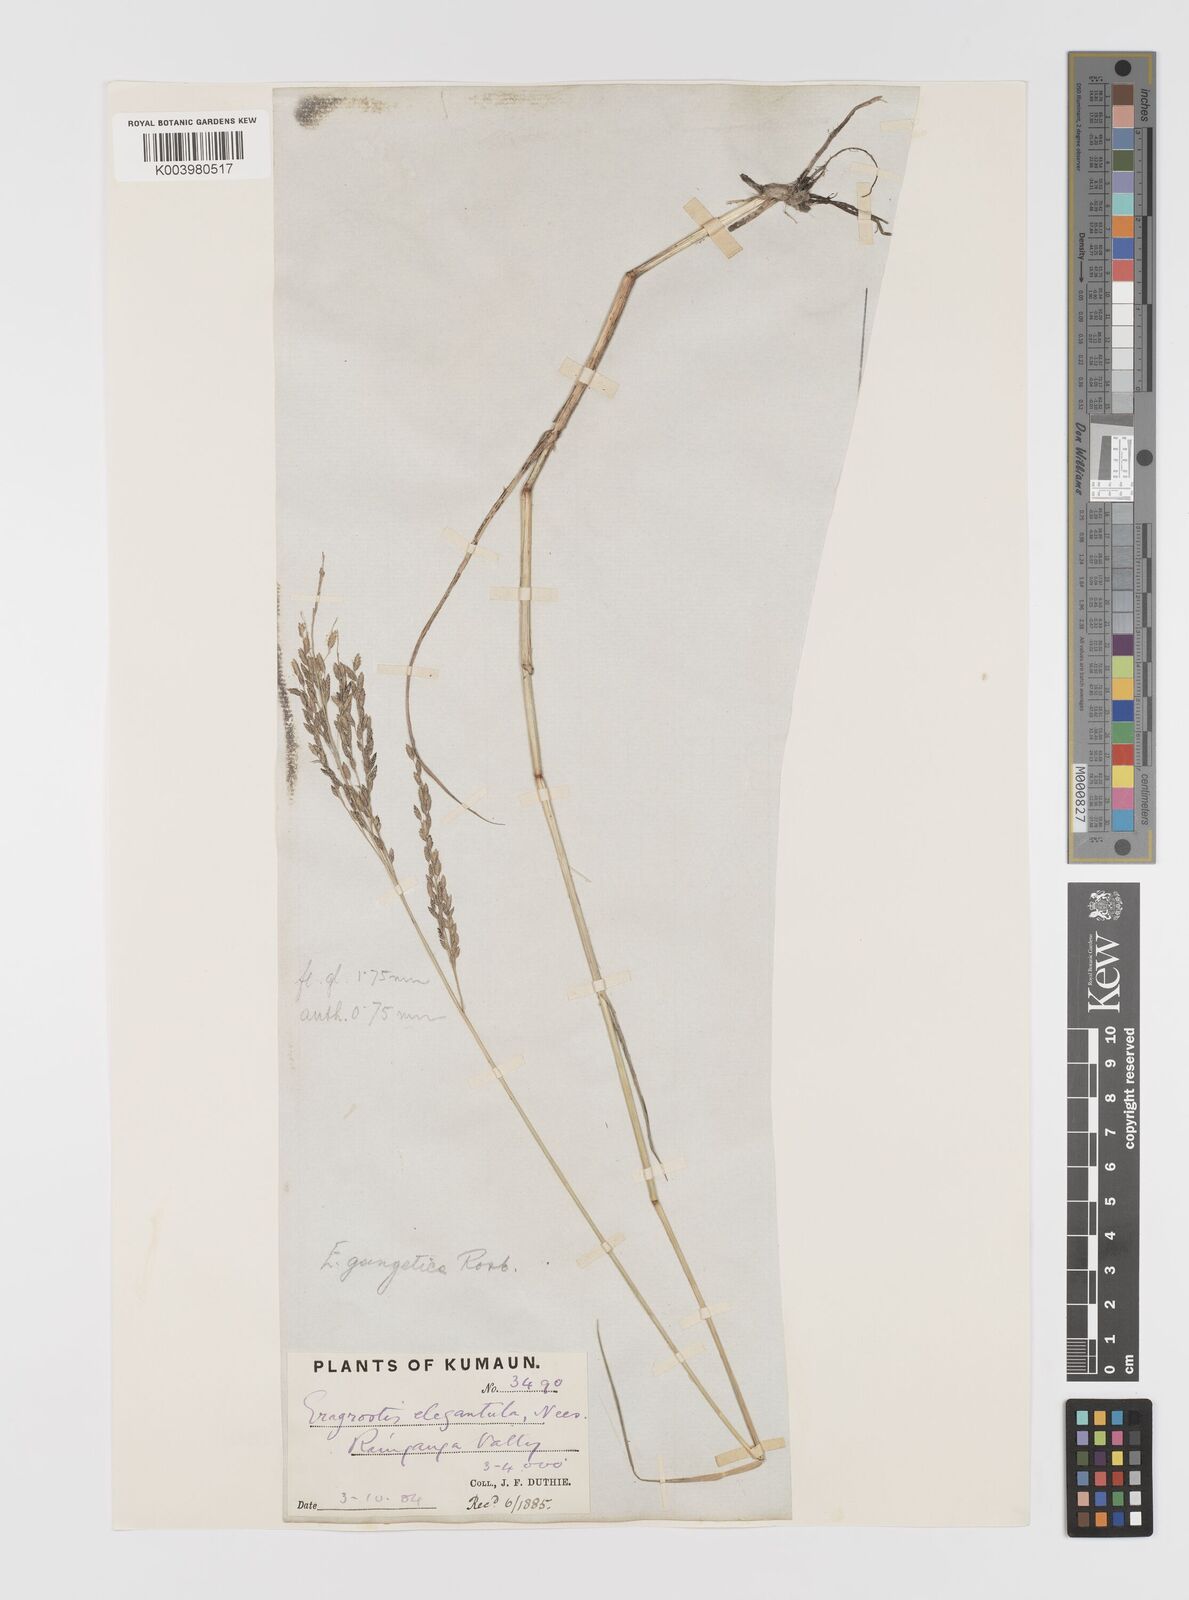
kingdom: Plantae
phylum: Tracheophyta
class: Liliopsida
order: Poales
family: Poaceae
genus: Eragrostis
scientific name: Eragrostis atrovirens
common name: Thalia lovegrass
